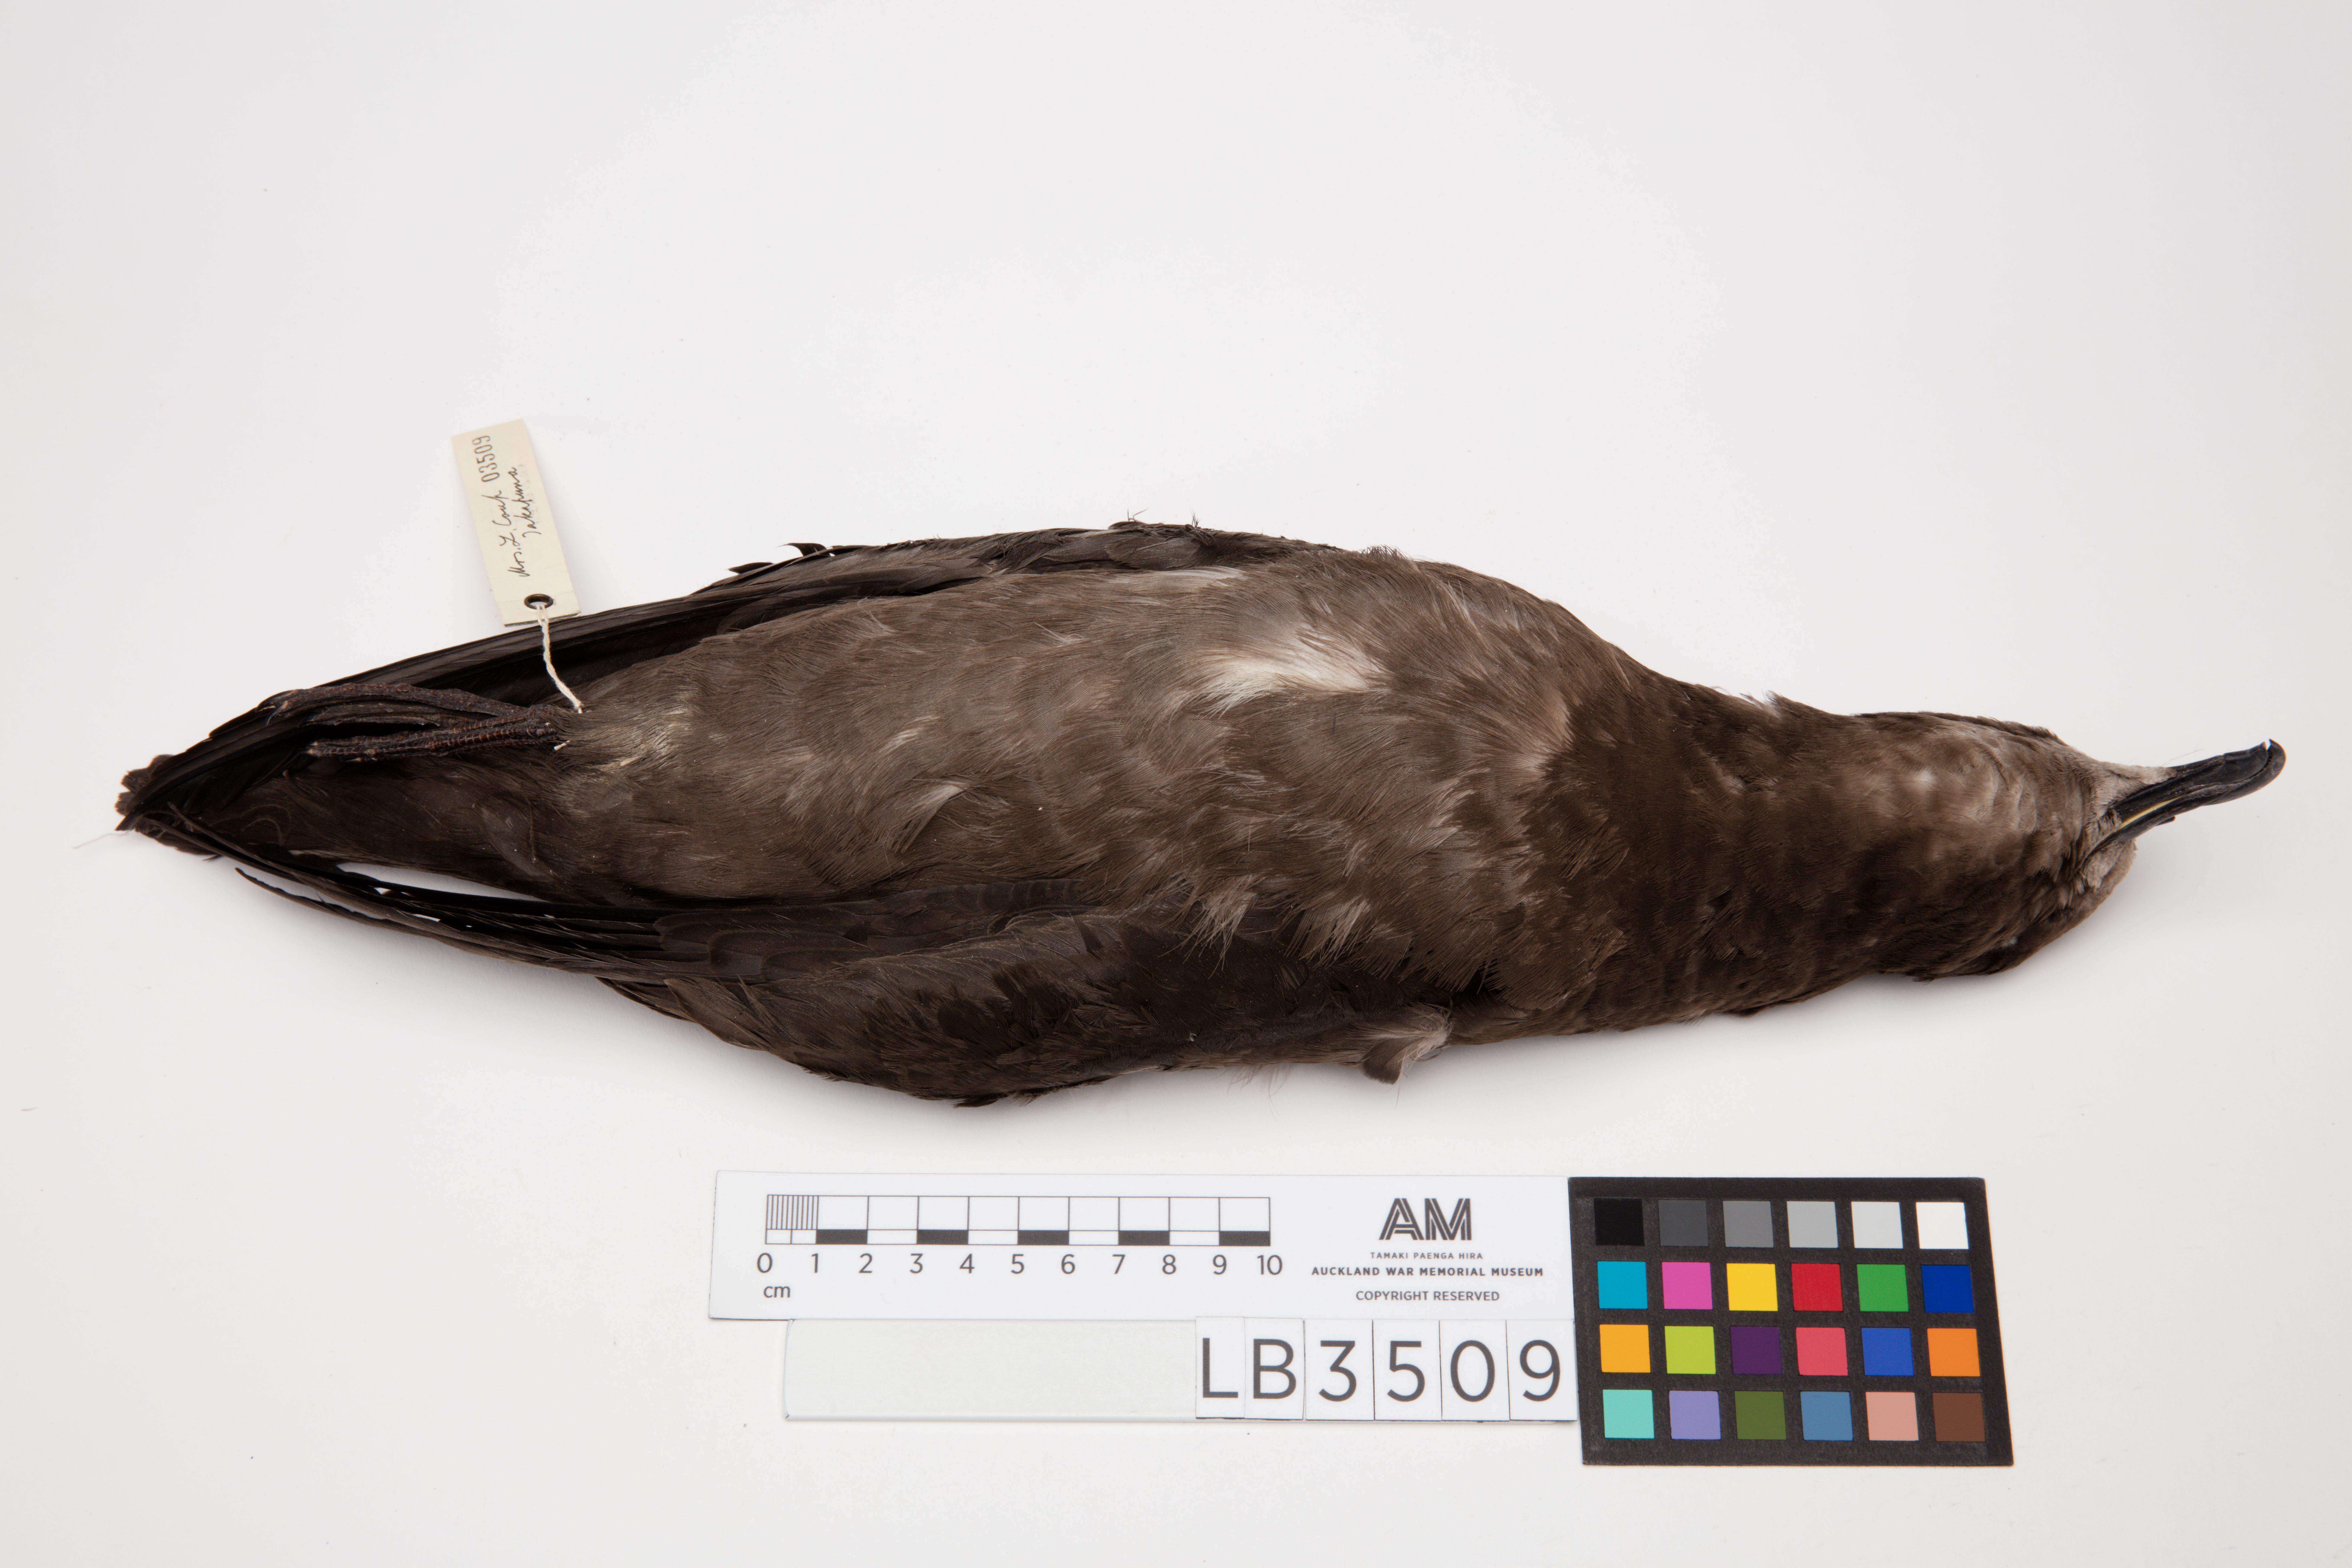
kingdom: Animalia
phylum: Chordata
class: Aves
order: Procellariiformes
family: Procellariidae
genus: Pterodroma
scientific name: Pterodroma macroptera
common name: Great-winged petrel
